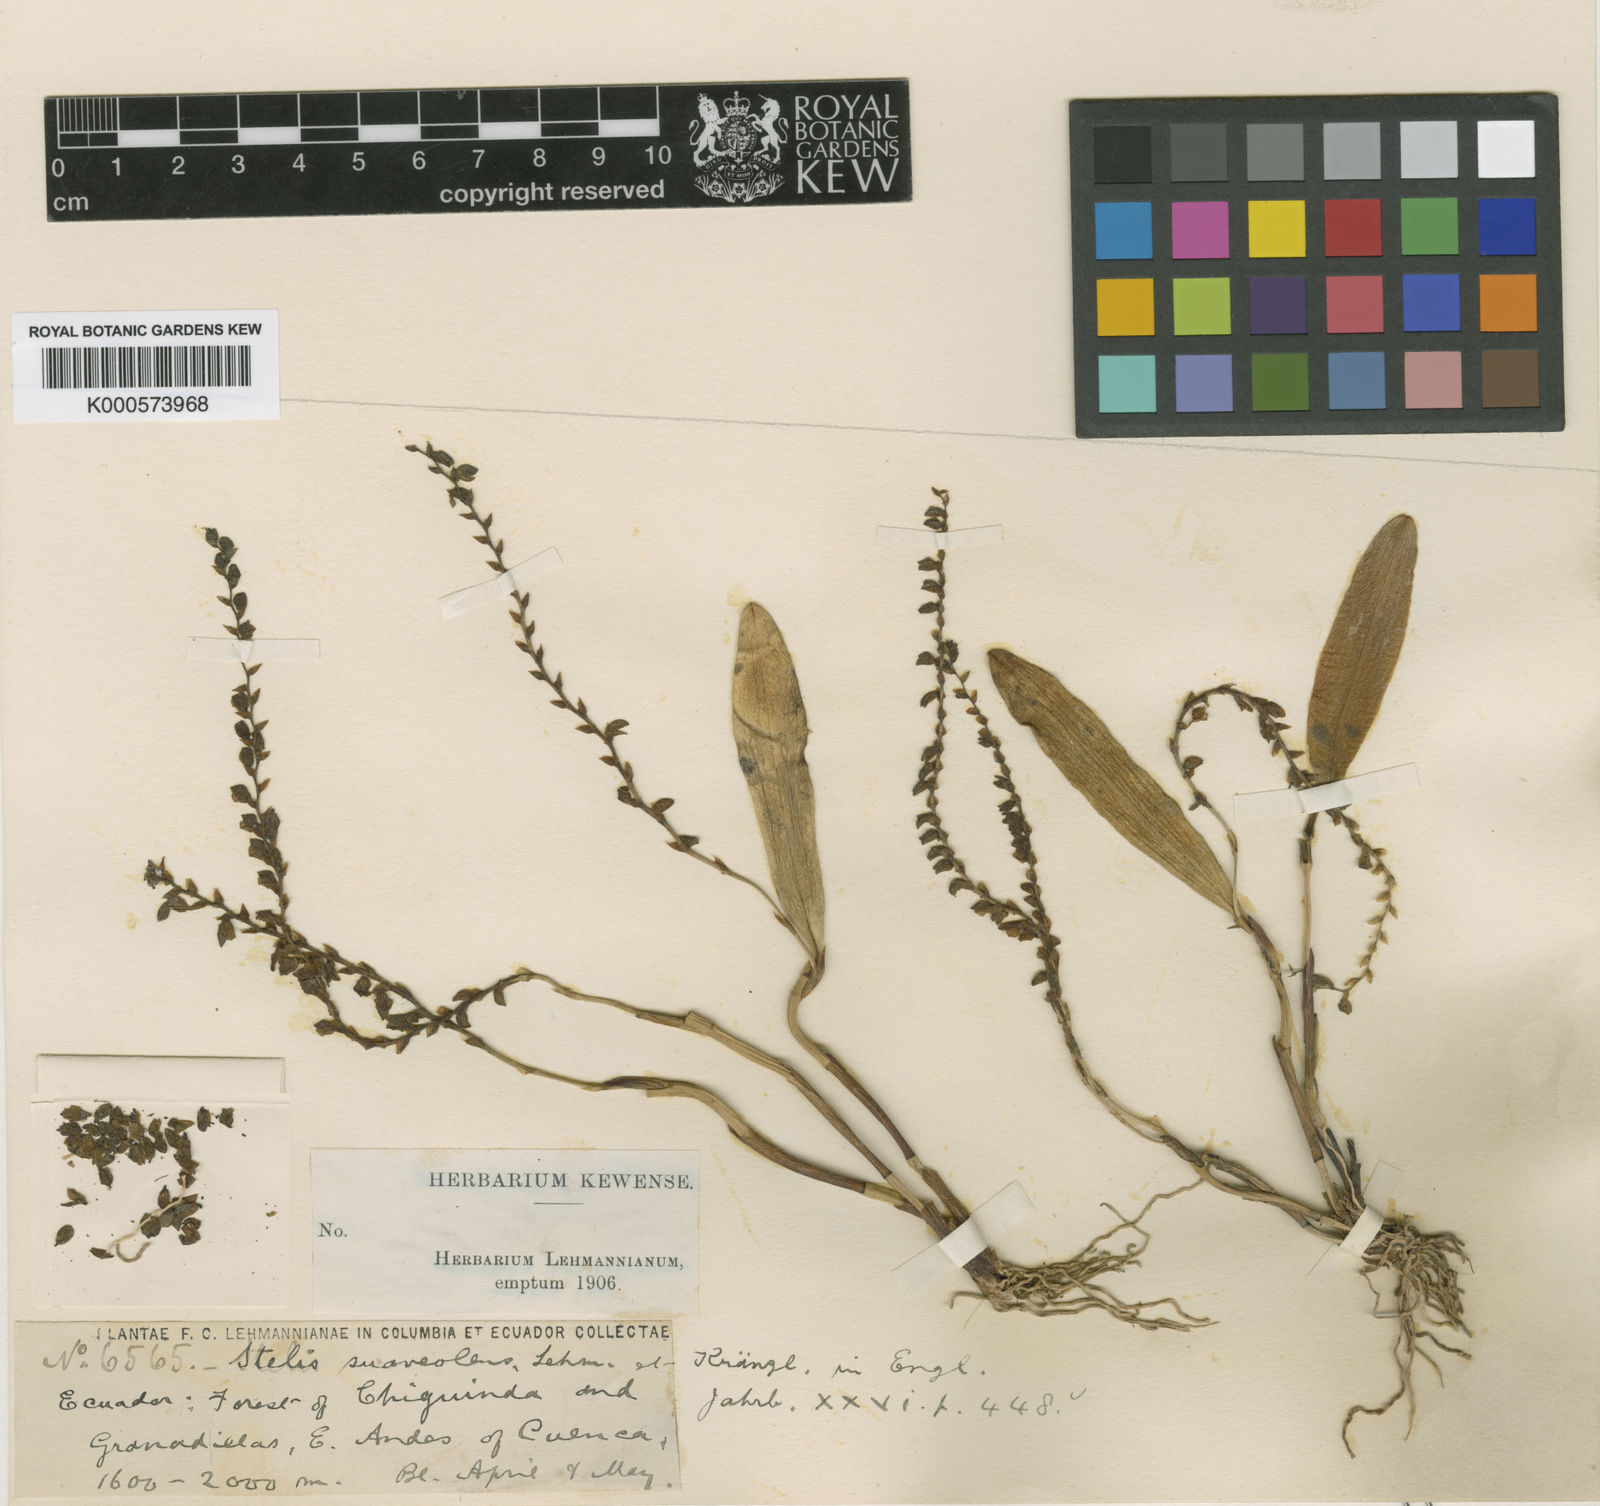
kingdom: Plantae
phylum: Tracheophyta
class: Liliopsida
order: Asparagales
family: Orchidaceae
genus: Stelis
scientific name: Stelis depauperata
